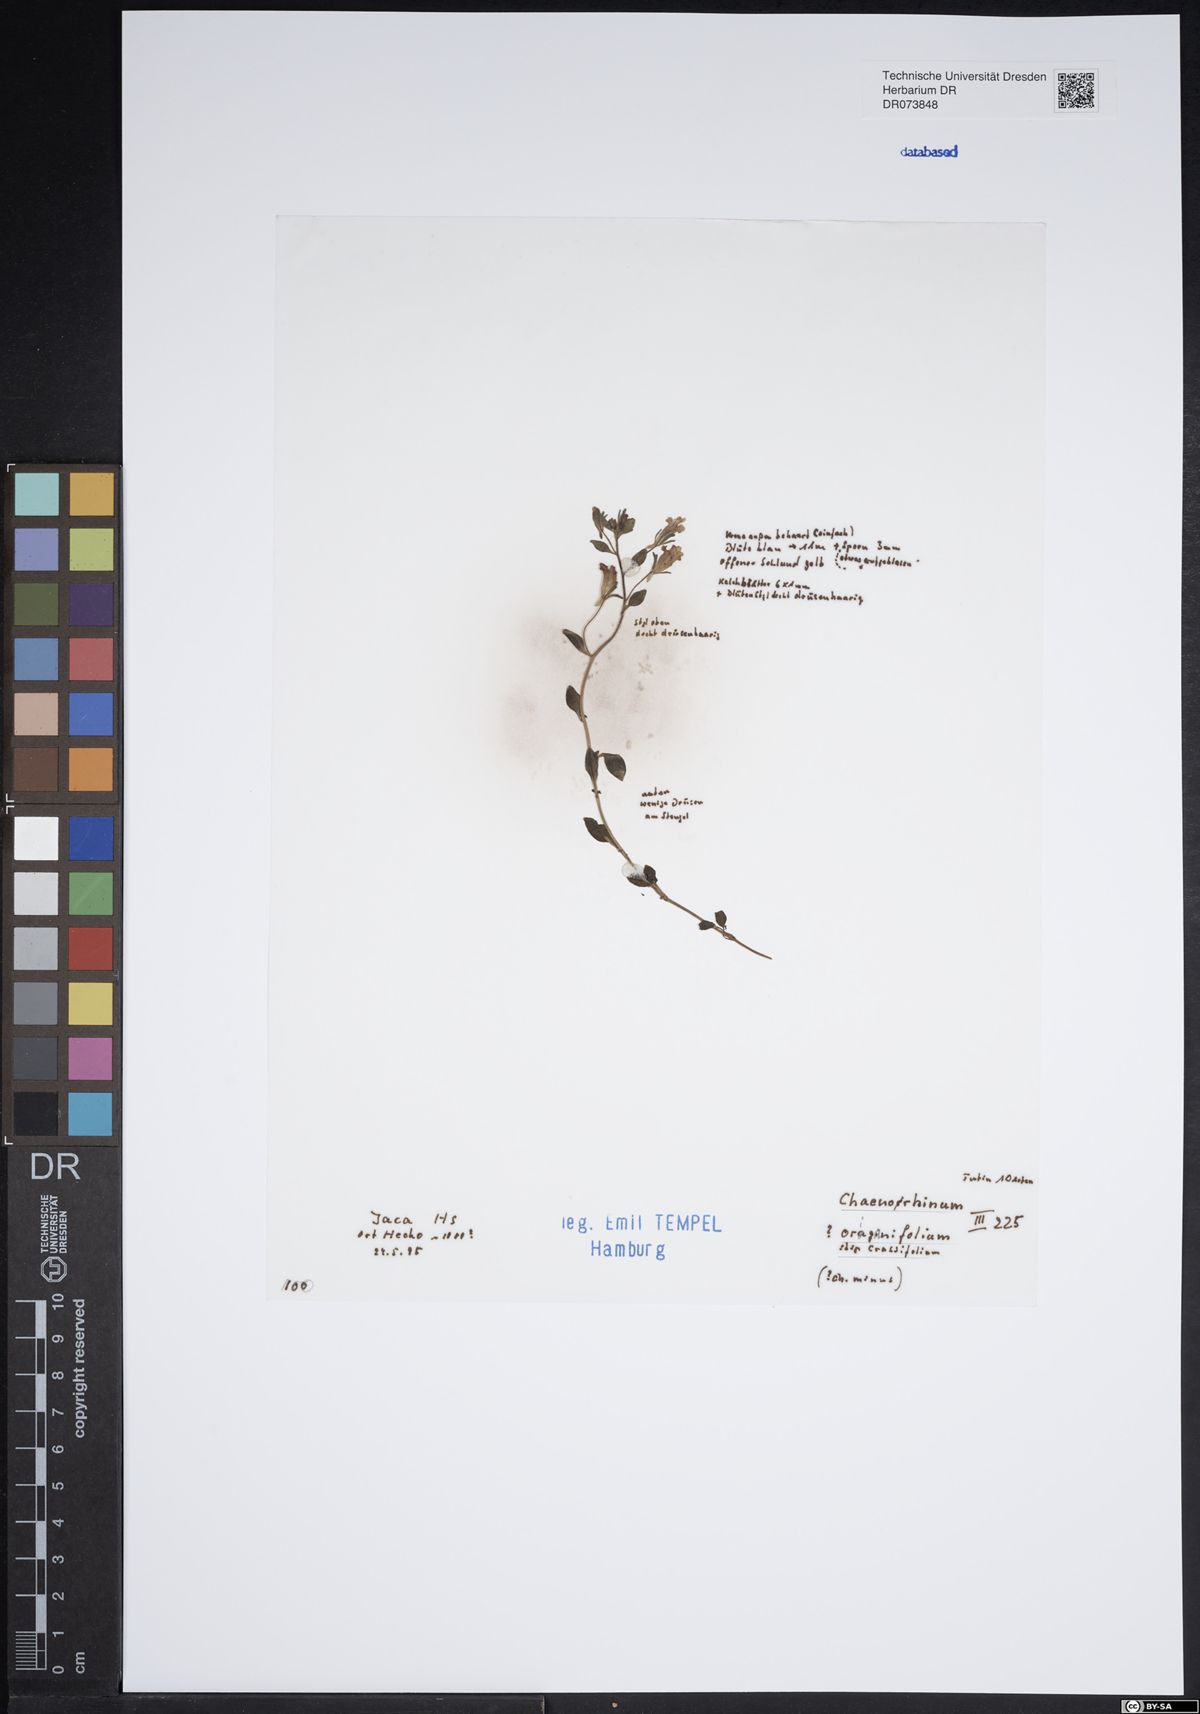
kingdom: Plantae
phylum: Tracheophyta
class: Magnoliopsida
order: Lamiales
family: Plantaginaceae
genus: Chaenorhinum
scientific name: Chaenorhinum crassifolium
